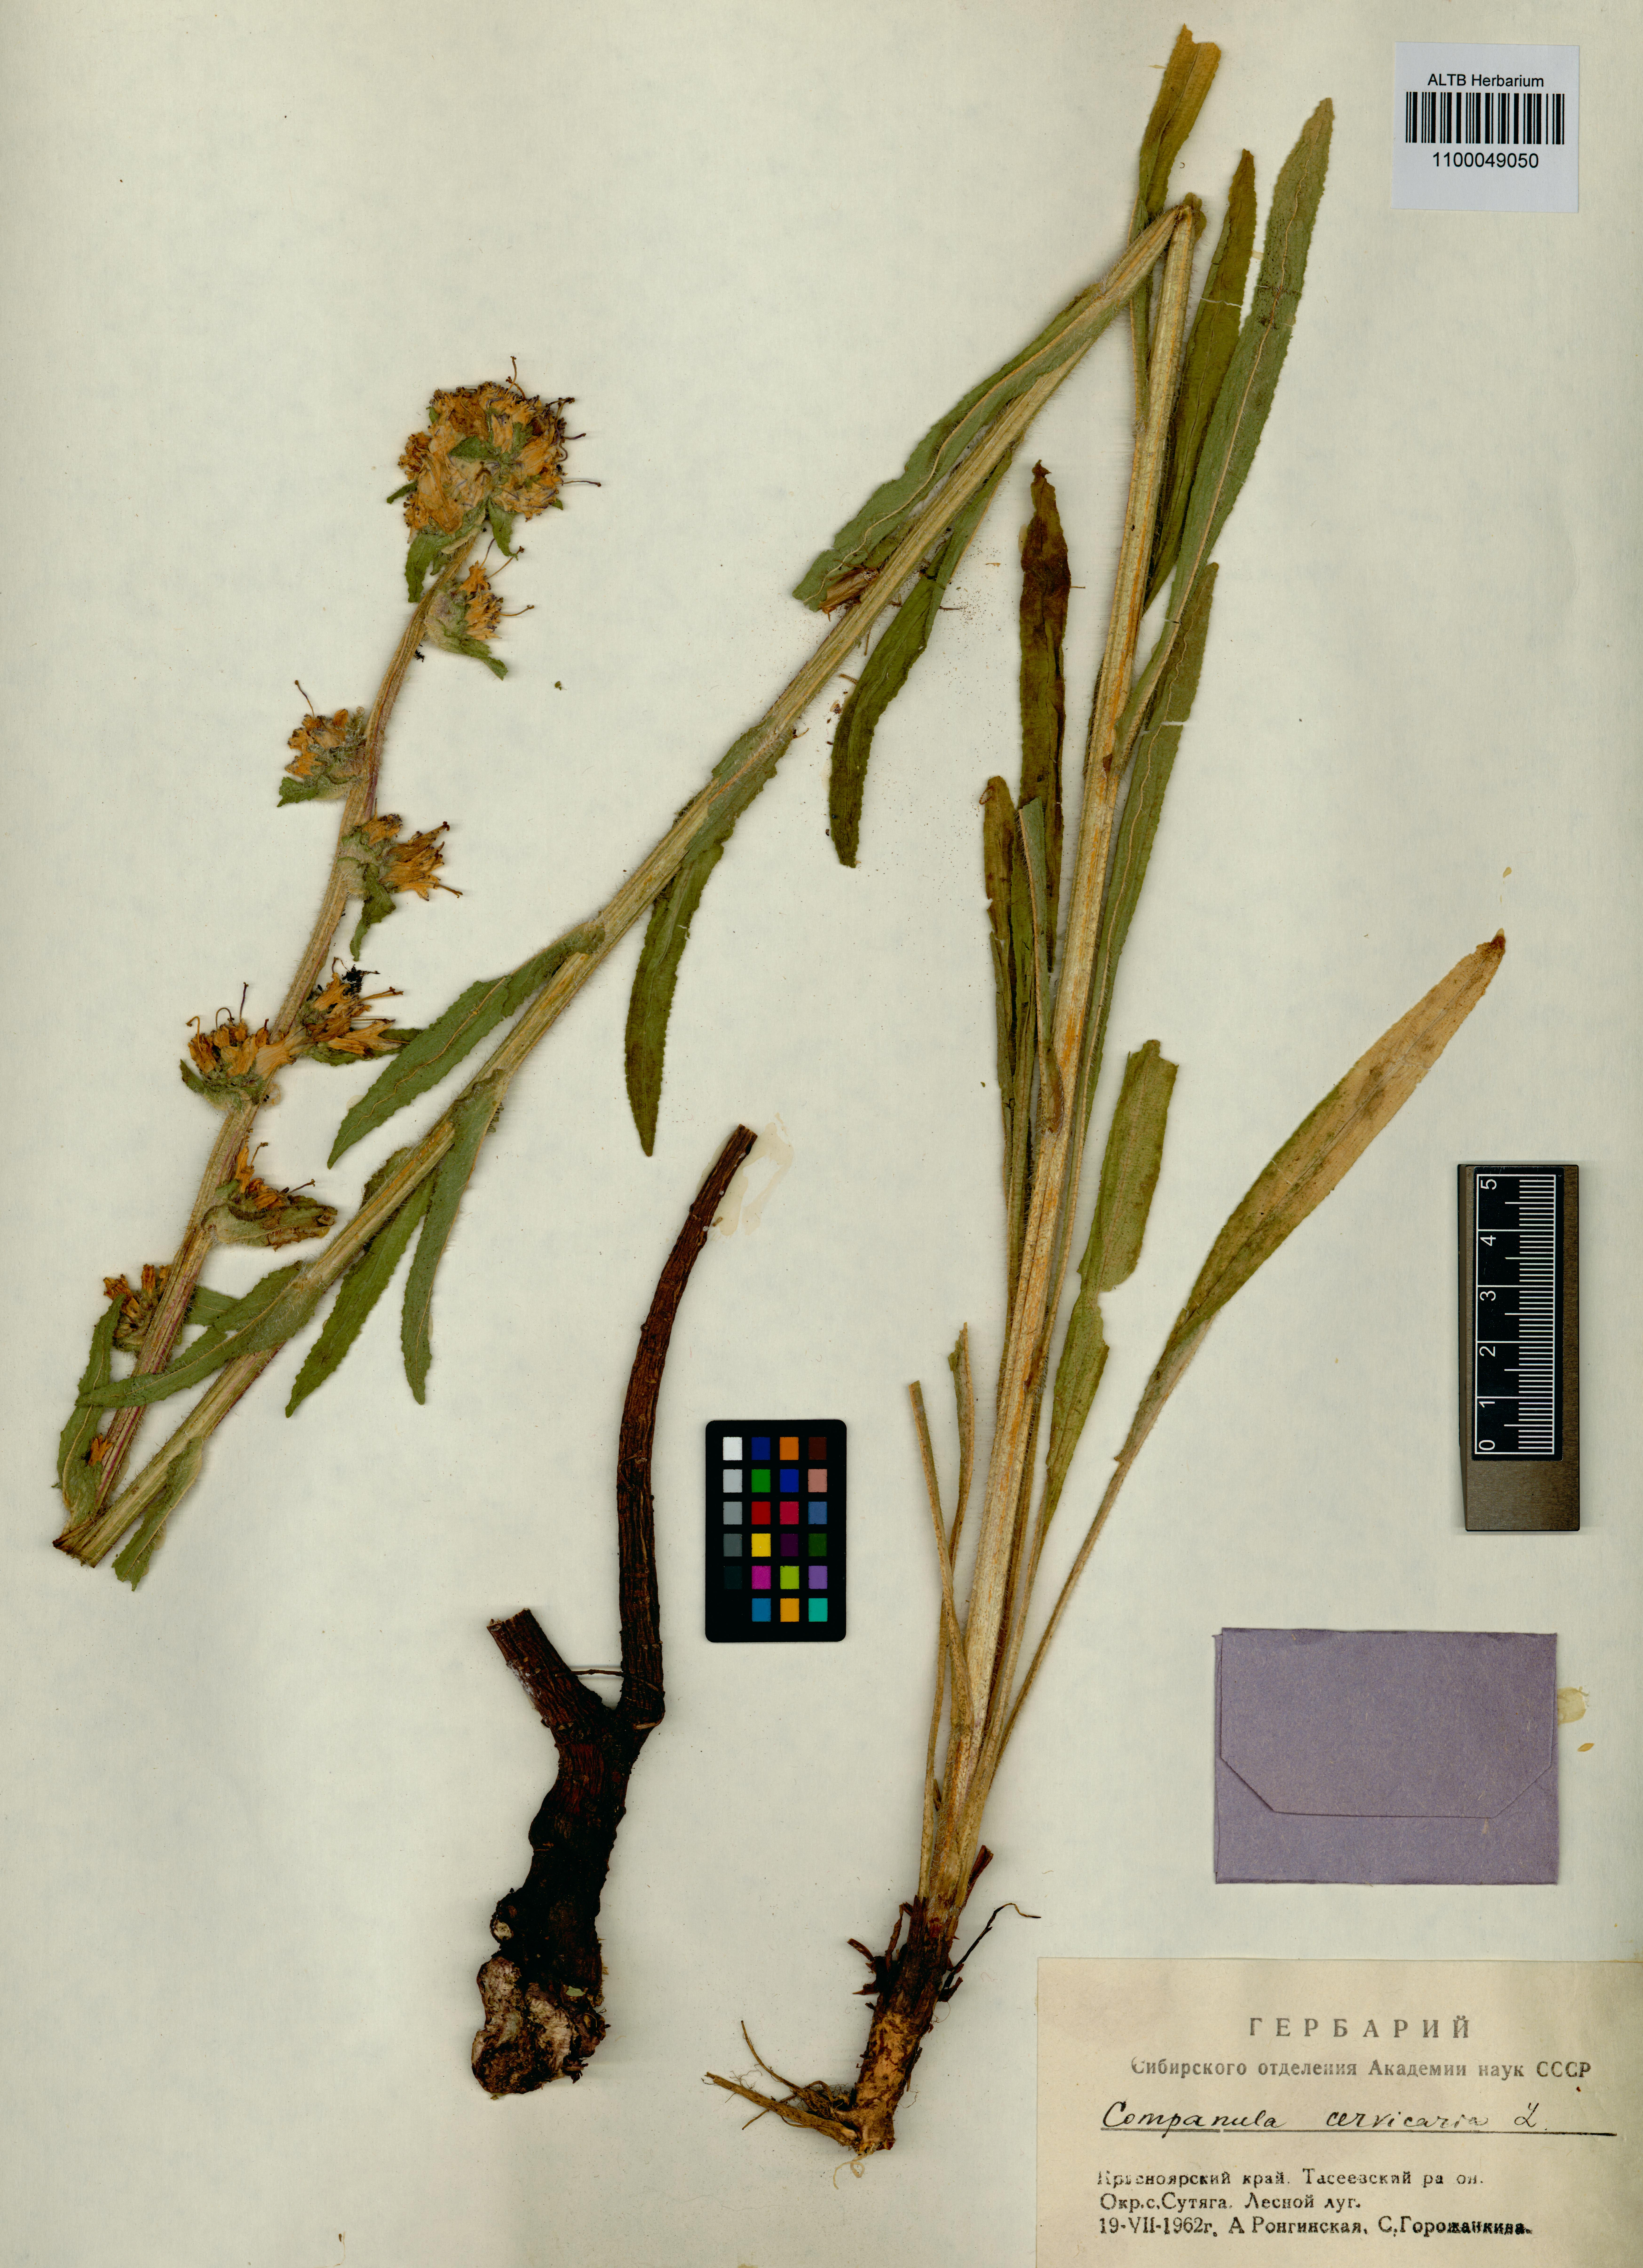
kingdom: Plantae
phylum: Tracheophyta
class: Magnoliopsida
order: Asterales
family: Campanulaceae
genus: Campanula
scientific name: Campanula cervicaria
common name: Bristly bellflower
